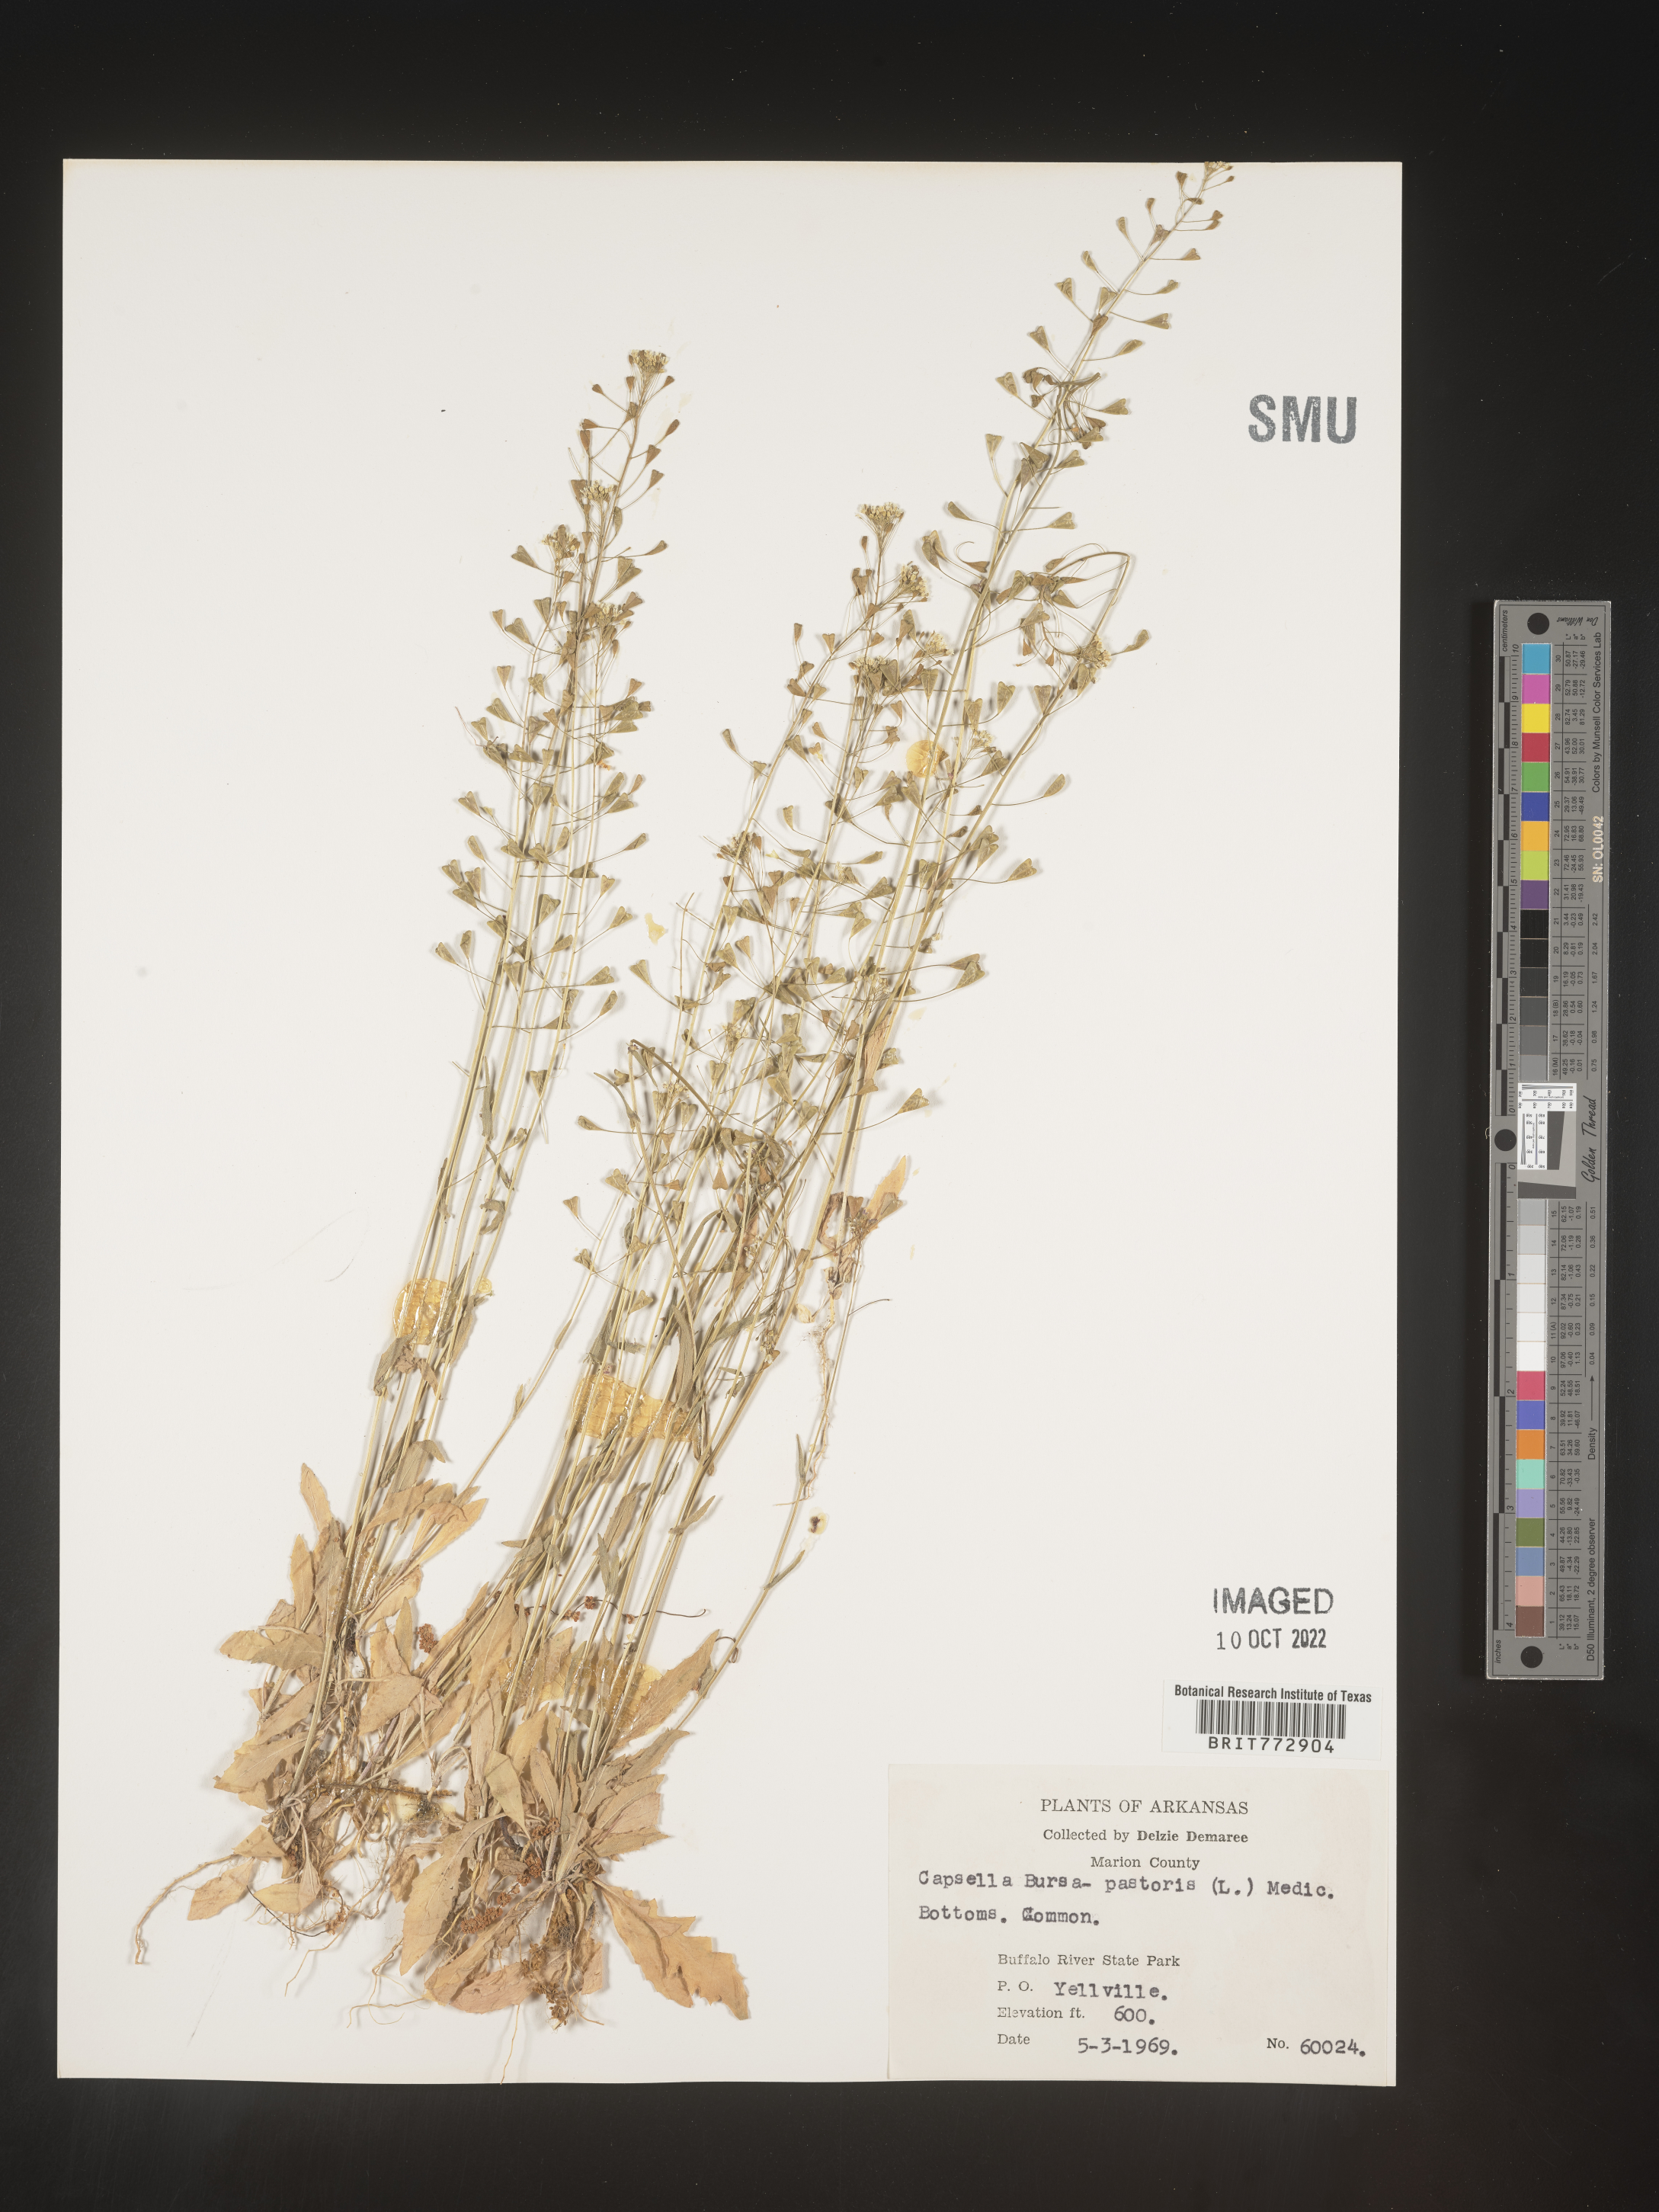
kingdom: Plantae
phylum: Tracheophyta
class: Magnoliopsida
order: Brassicales
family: Brassicaceae
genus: Capsella
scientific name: Capsella bursa-pastoris
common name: Shepherd's purse
